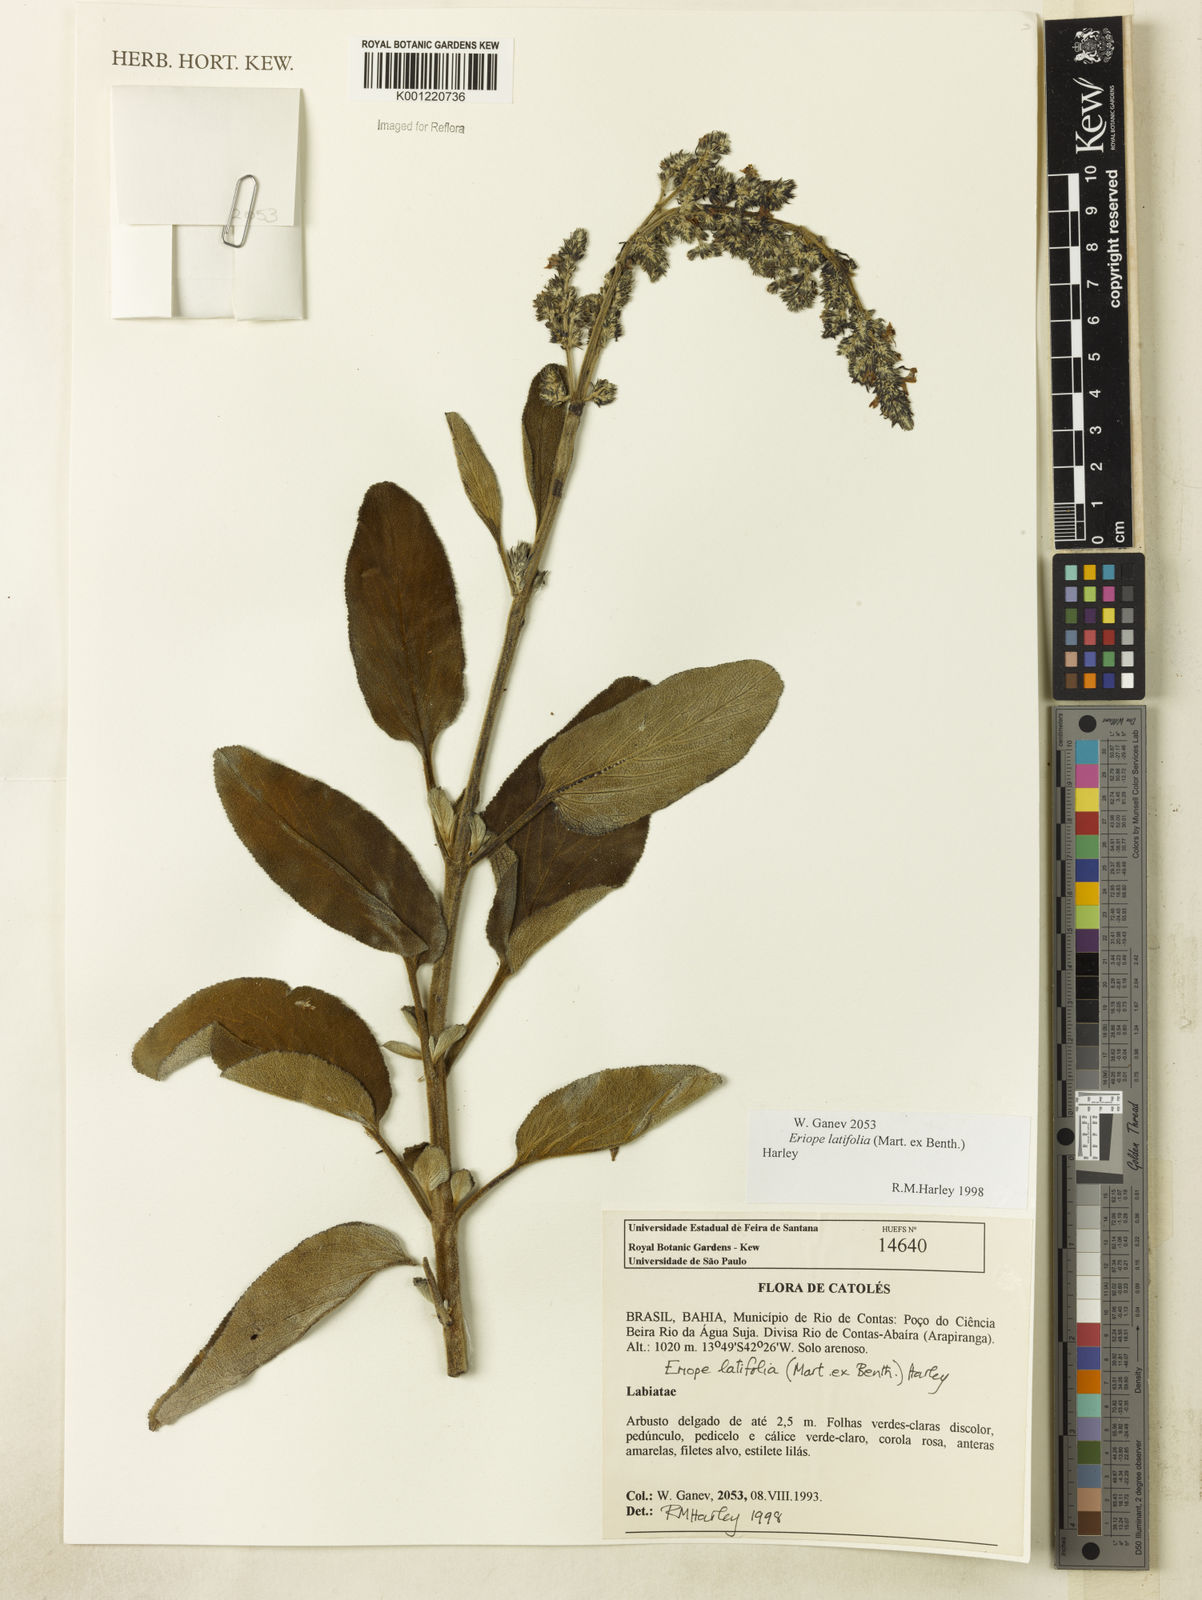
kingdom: Plantae
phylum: Tracheophyta
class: Magnoliopsida
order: Lamiales
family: Lamiaceae
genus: Eriope
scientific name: Eriope latifolia
